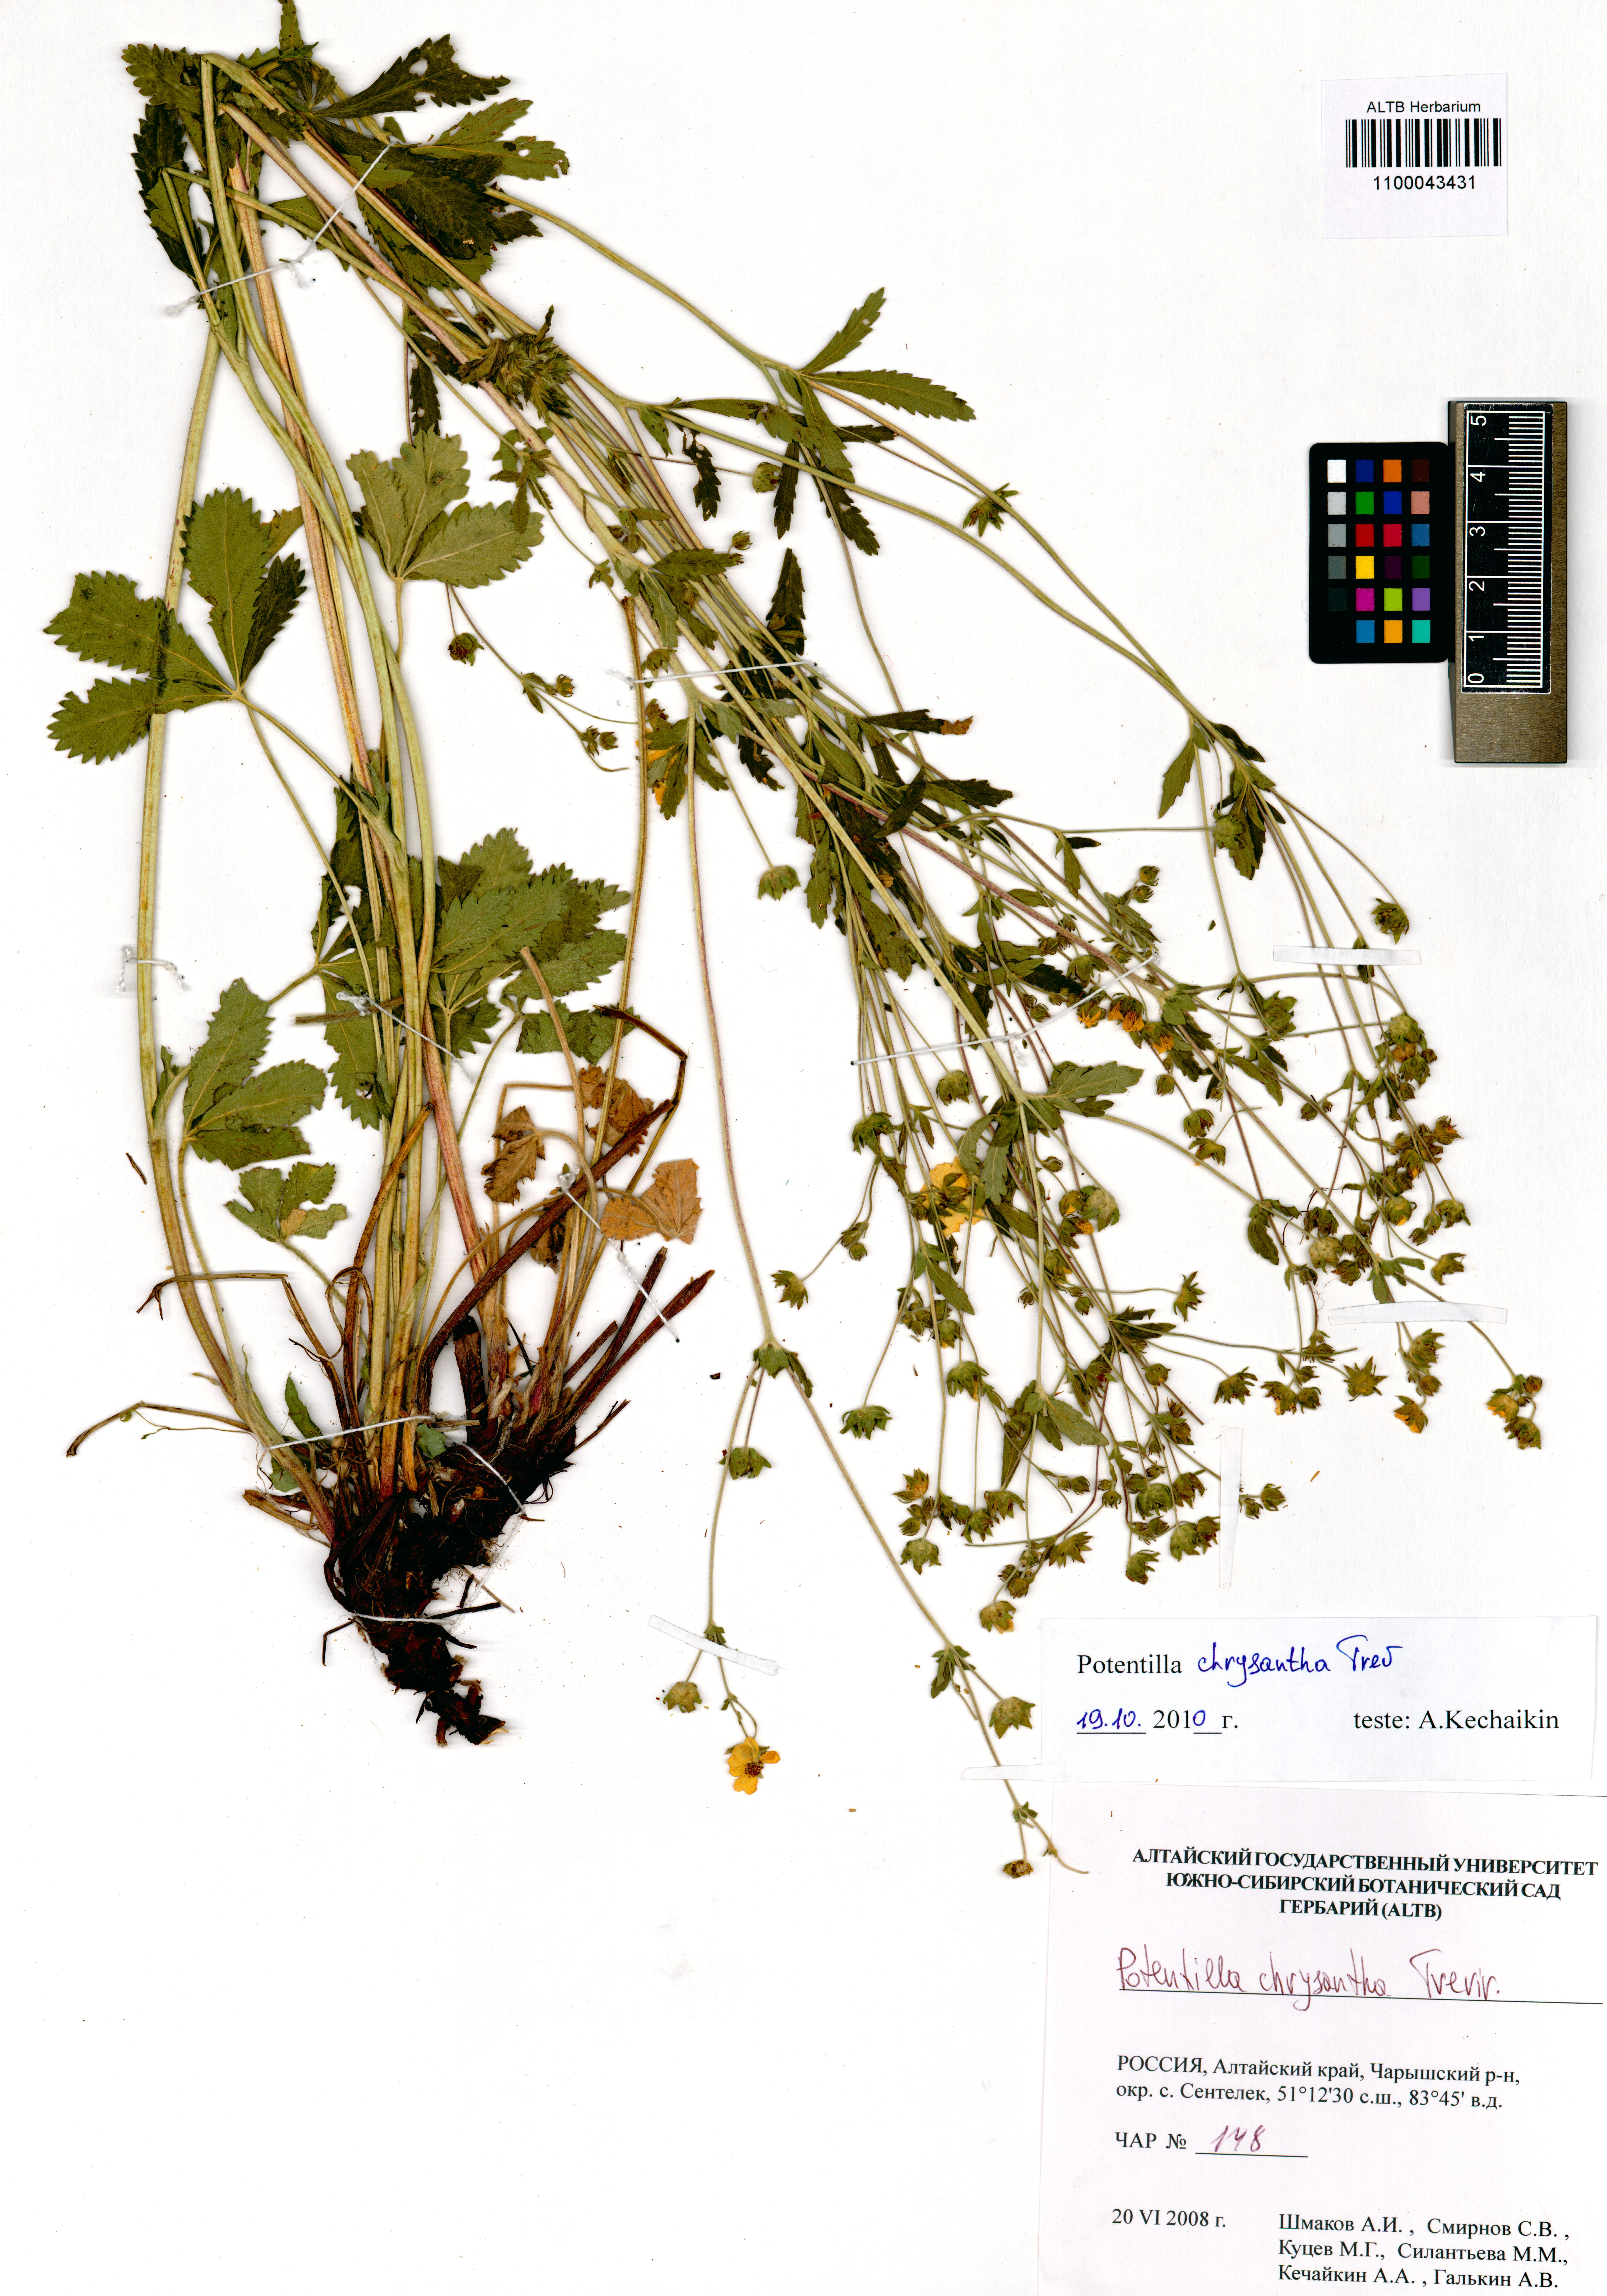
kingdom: Plantae
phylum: Tracheophyta
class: Magnoliopsida
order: Rosales
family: Rosaceae
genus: Potentilla
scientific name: Potentilla chrysantha
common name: Thuringian cinquefoil
